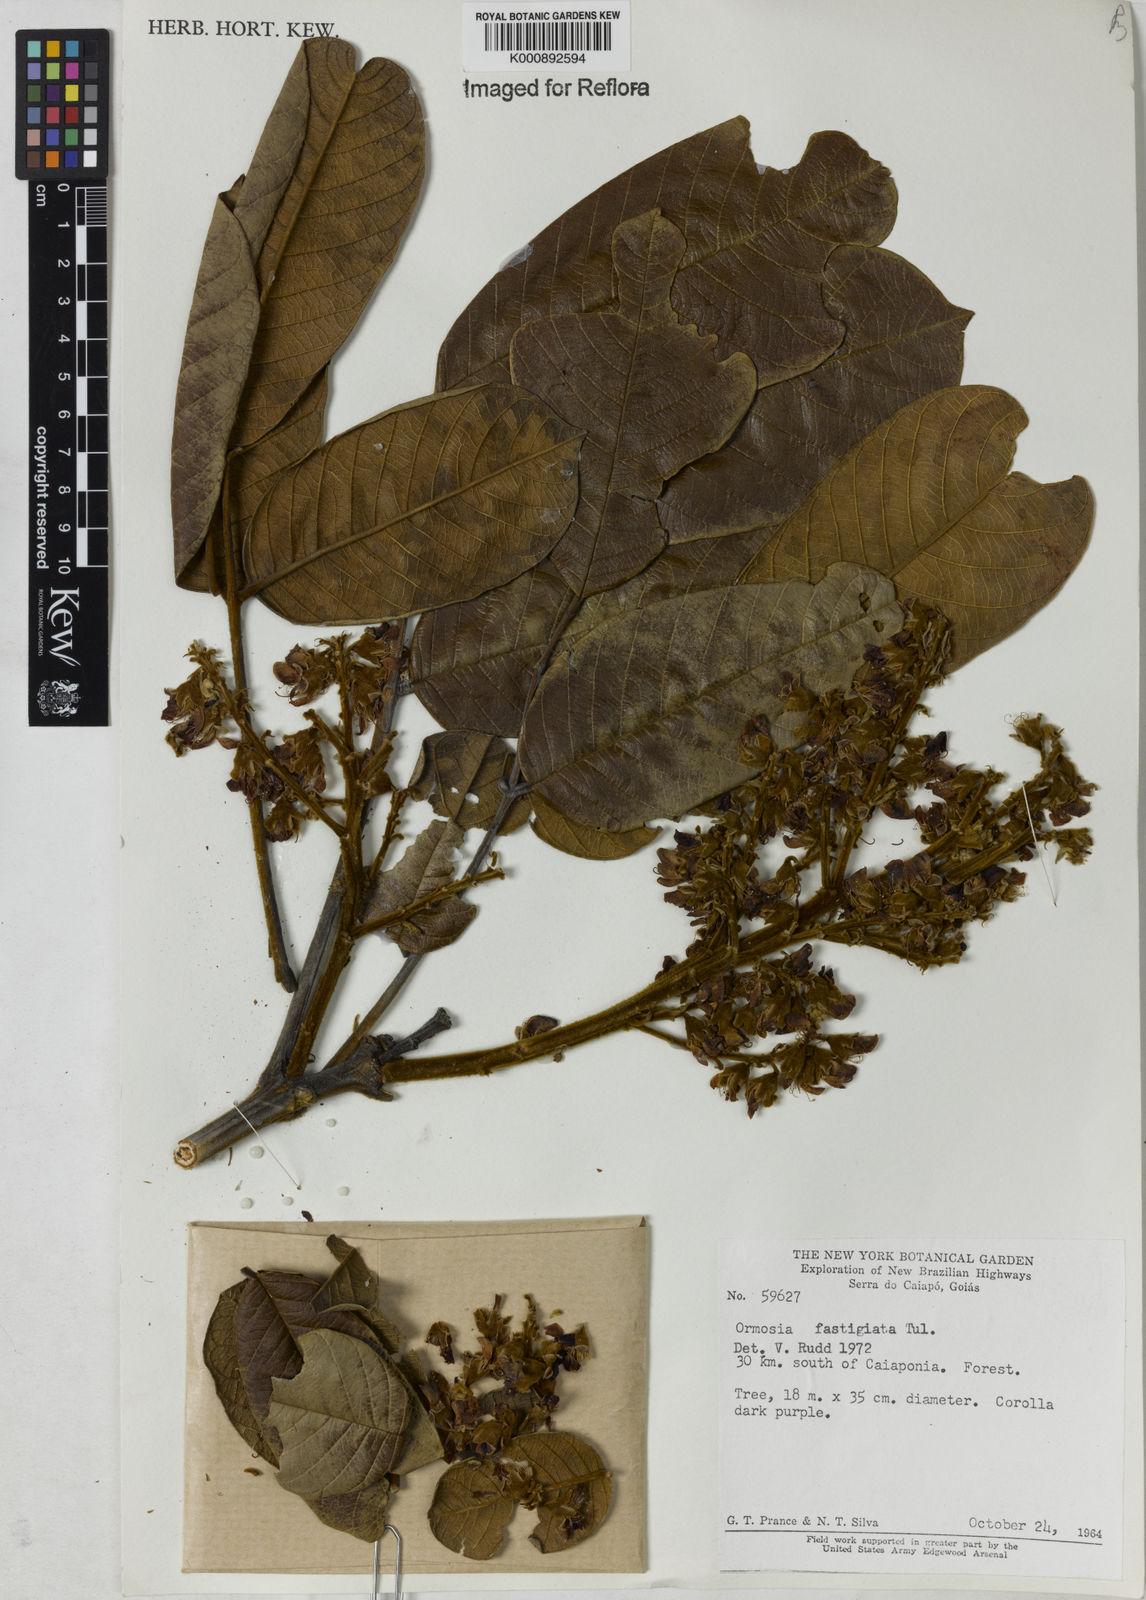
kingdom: Plantae
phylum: Tracheophyta
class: Magnoliopsida
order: Fabales
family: Fabaceae
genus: Ormosia
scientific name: Ormosia coarctata
